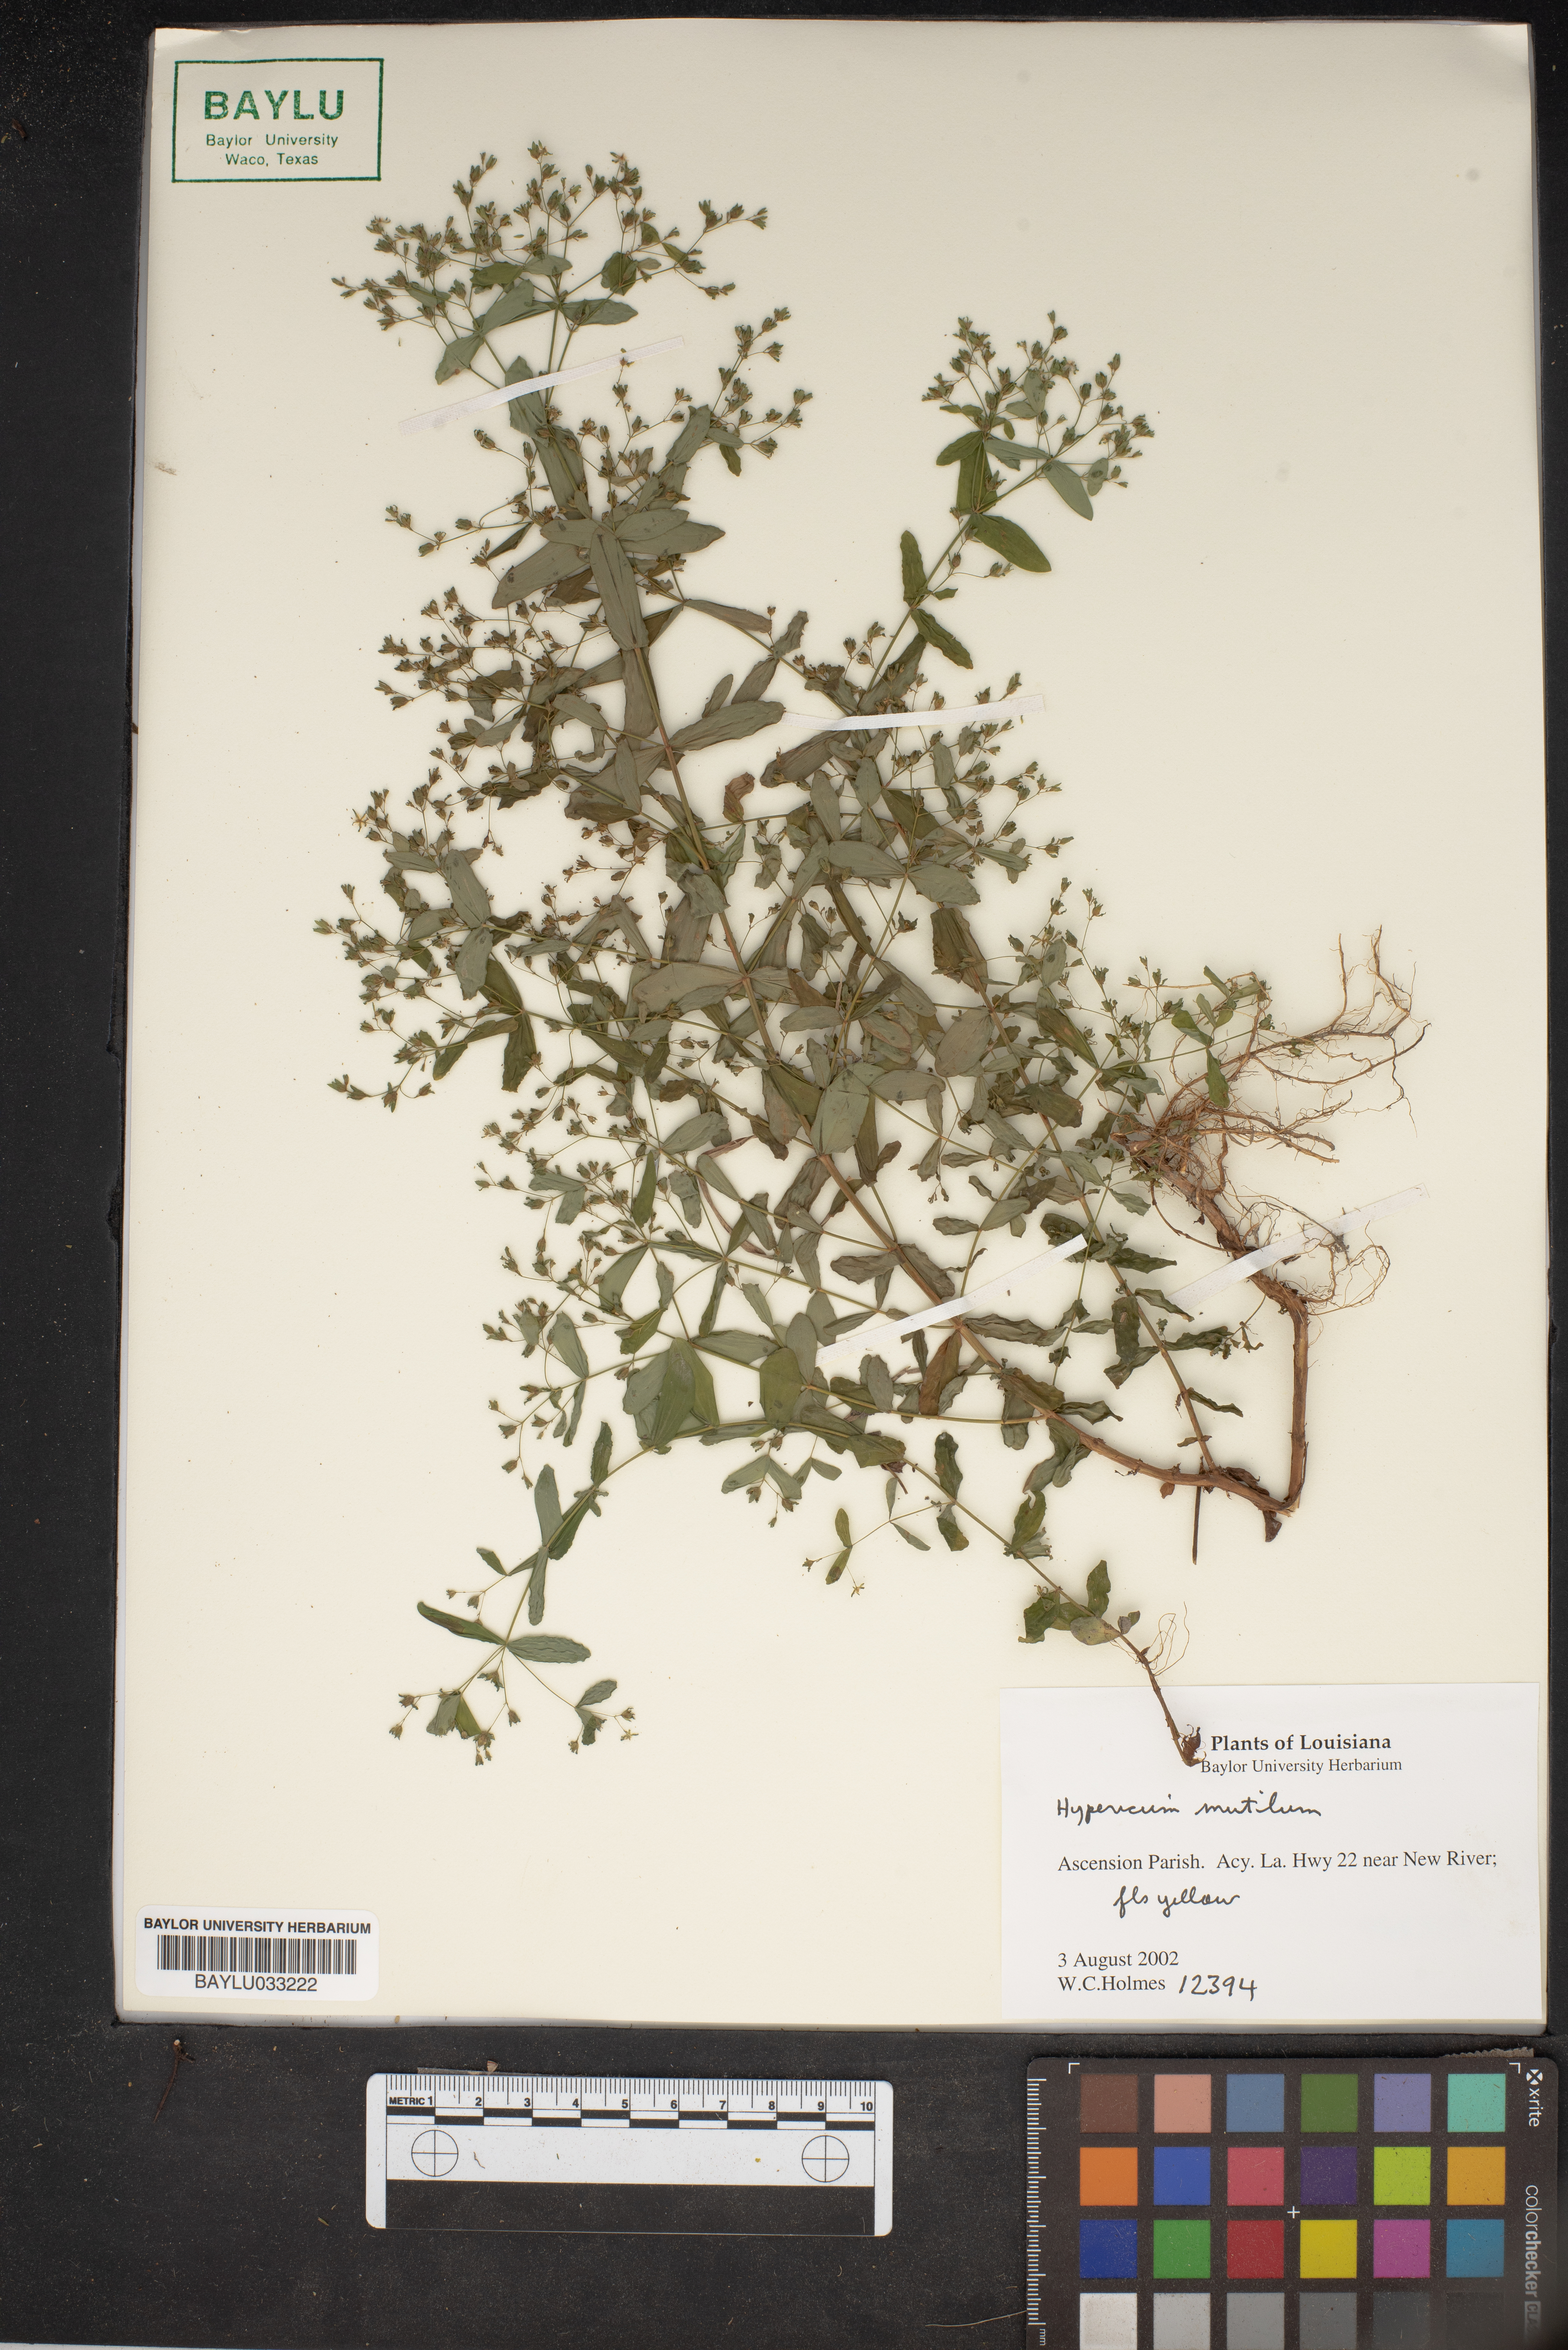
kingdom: Plantae
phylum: Tracheophyta
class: Magnoliopsida
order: Malpighiales
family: Hypericaceae
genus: Hypericum
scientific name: Hypericum mutilum
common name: Dwarf st. john's-wort
